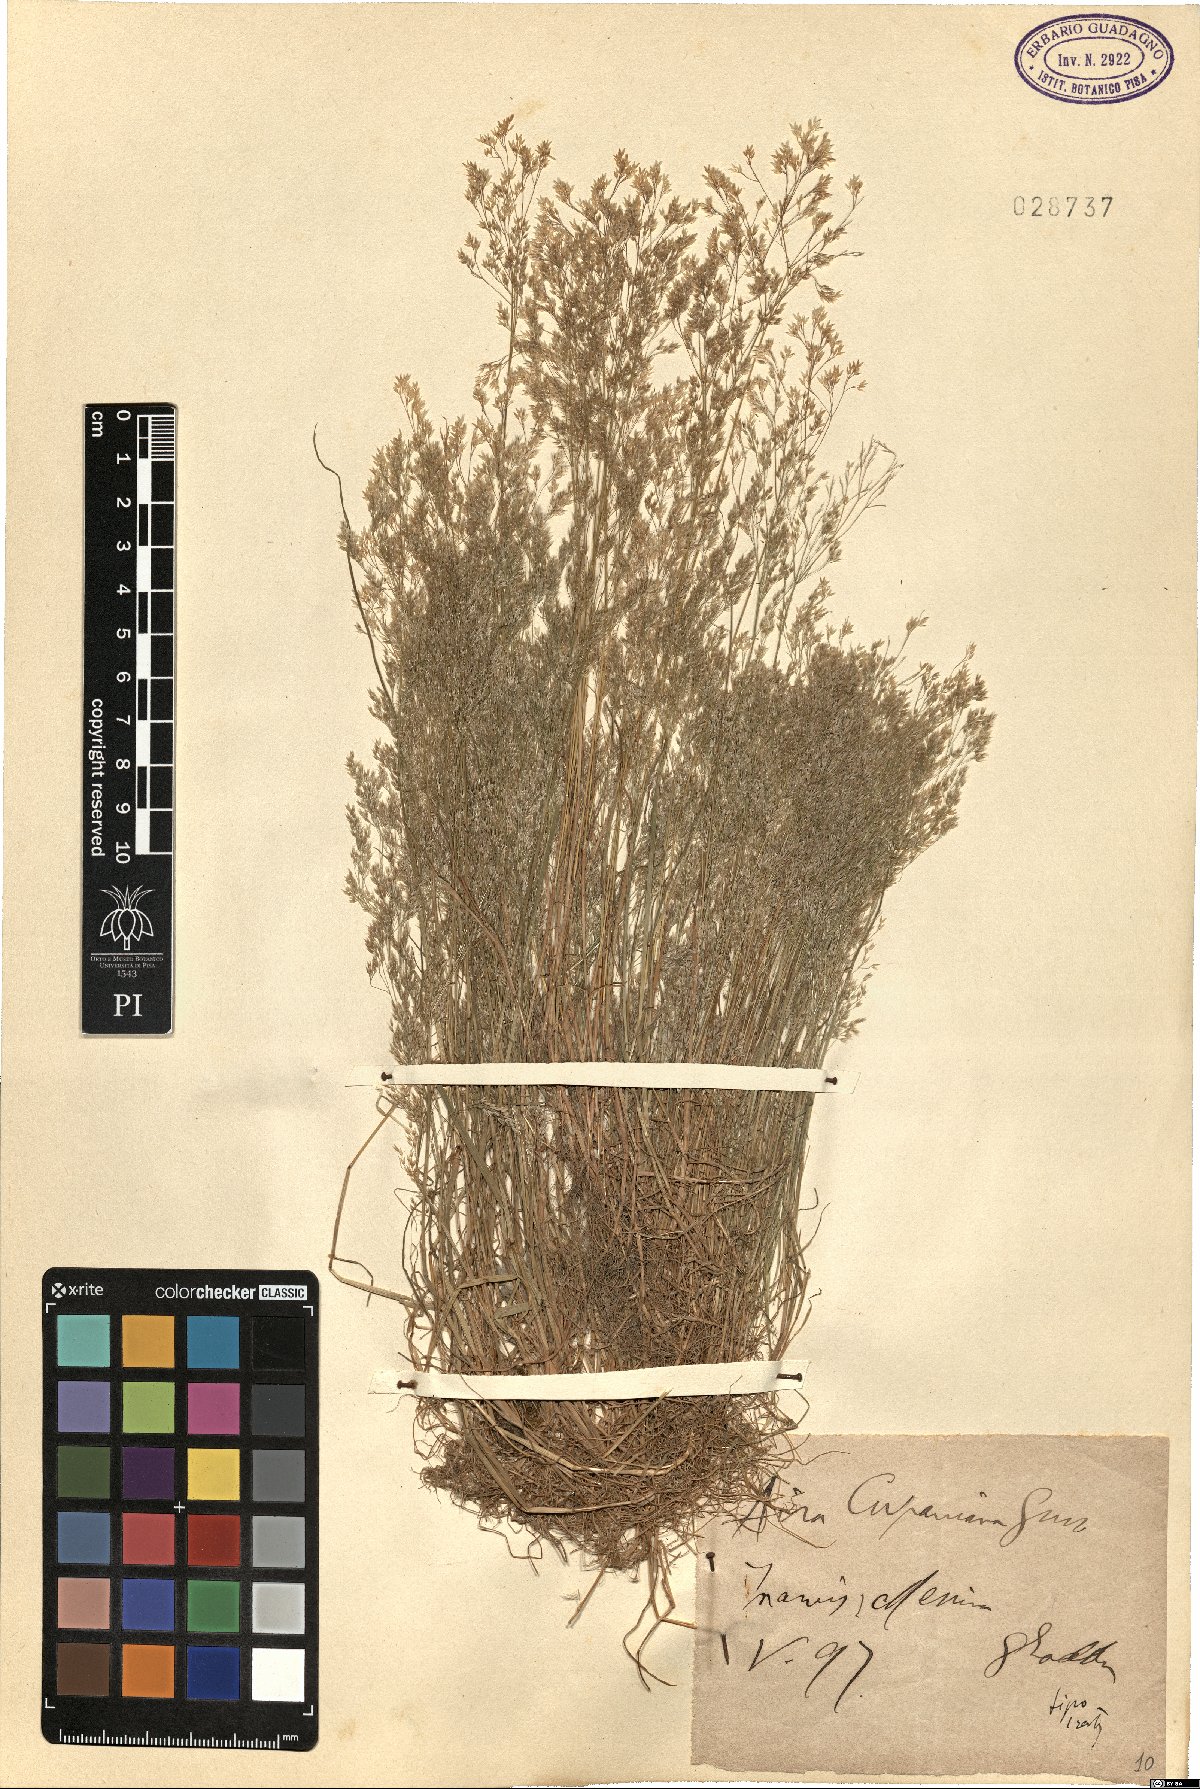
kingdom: Plantae
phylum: Tracheophyta
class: Liliopsida
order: Poales
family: Poaceae
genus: Aira
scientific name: Aira cupaniana
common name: Silver hairgrass
